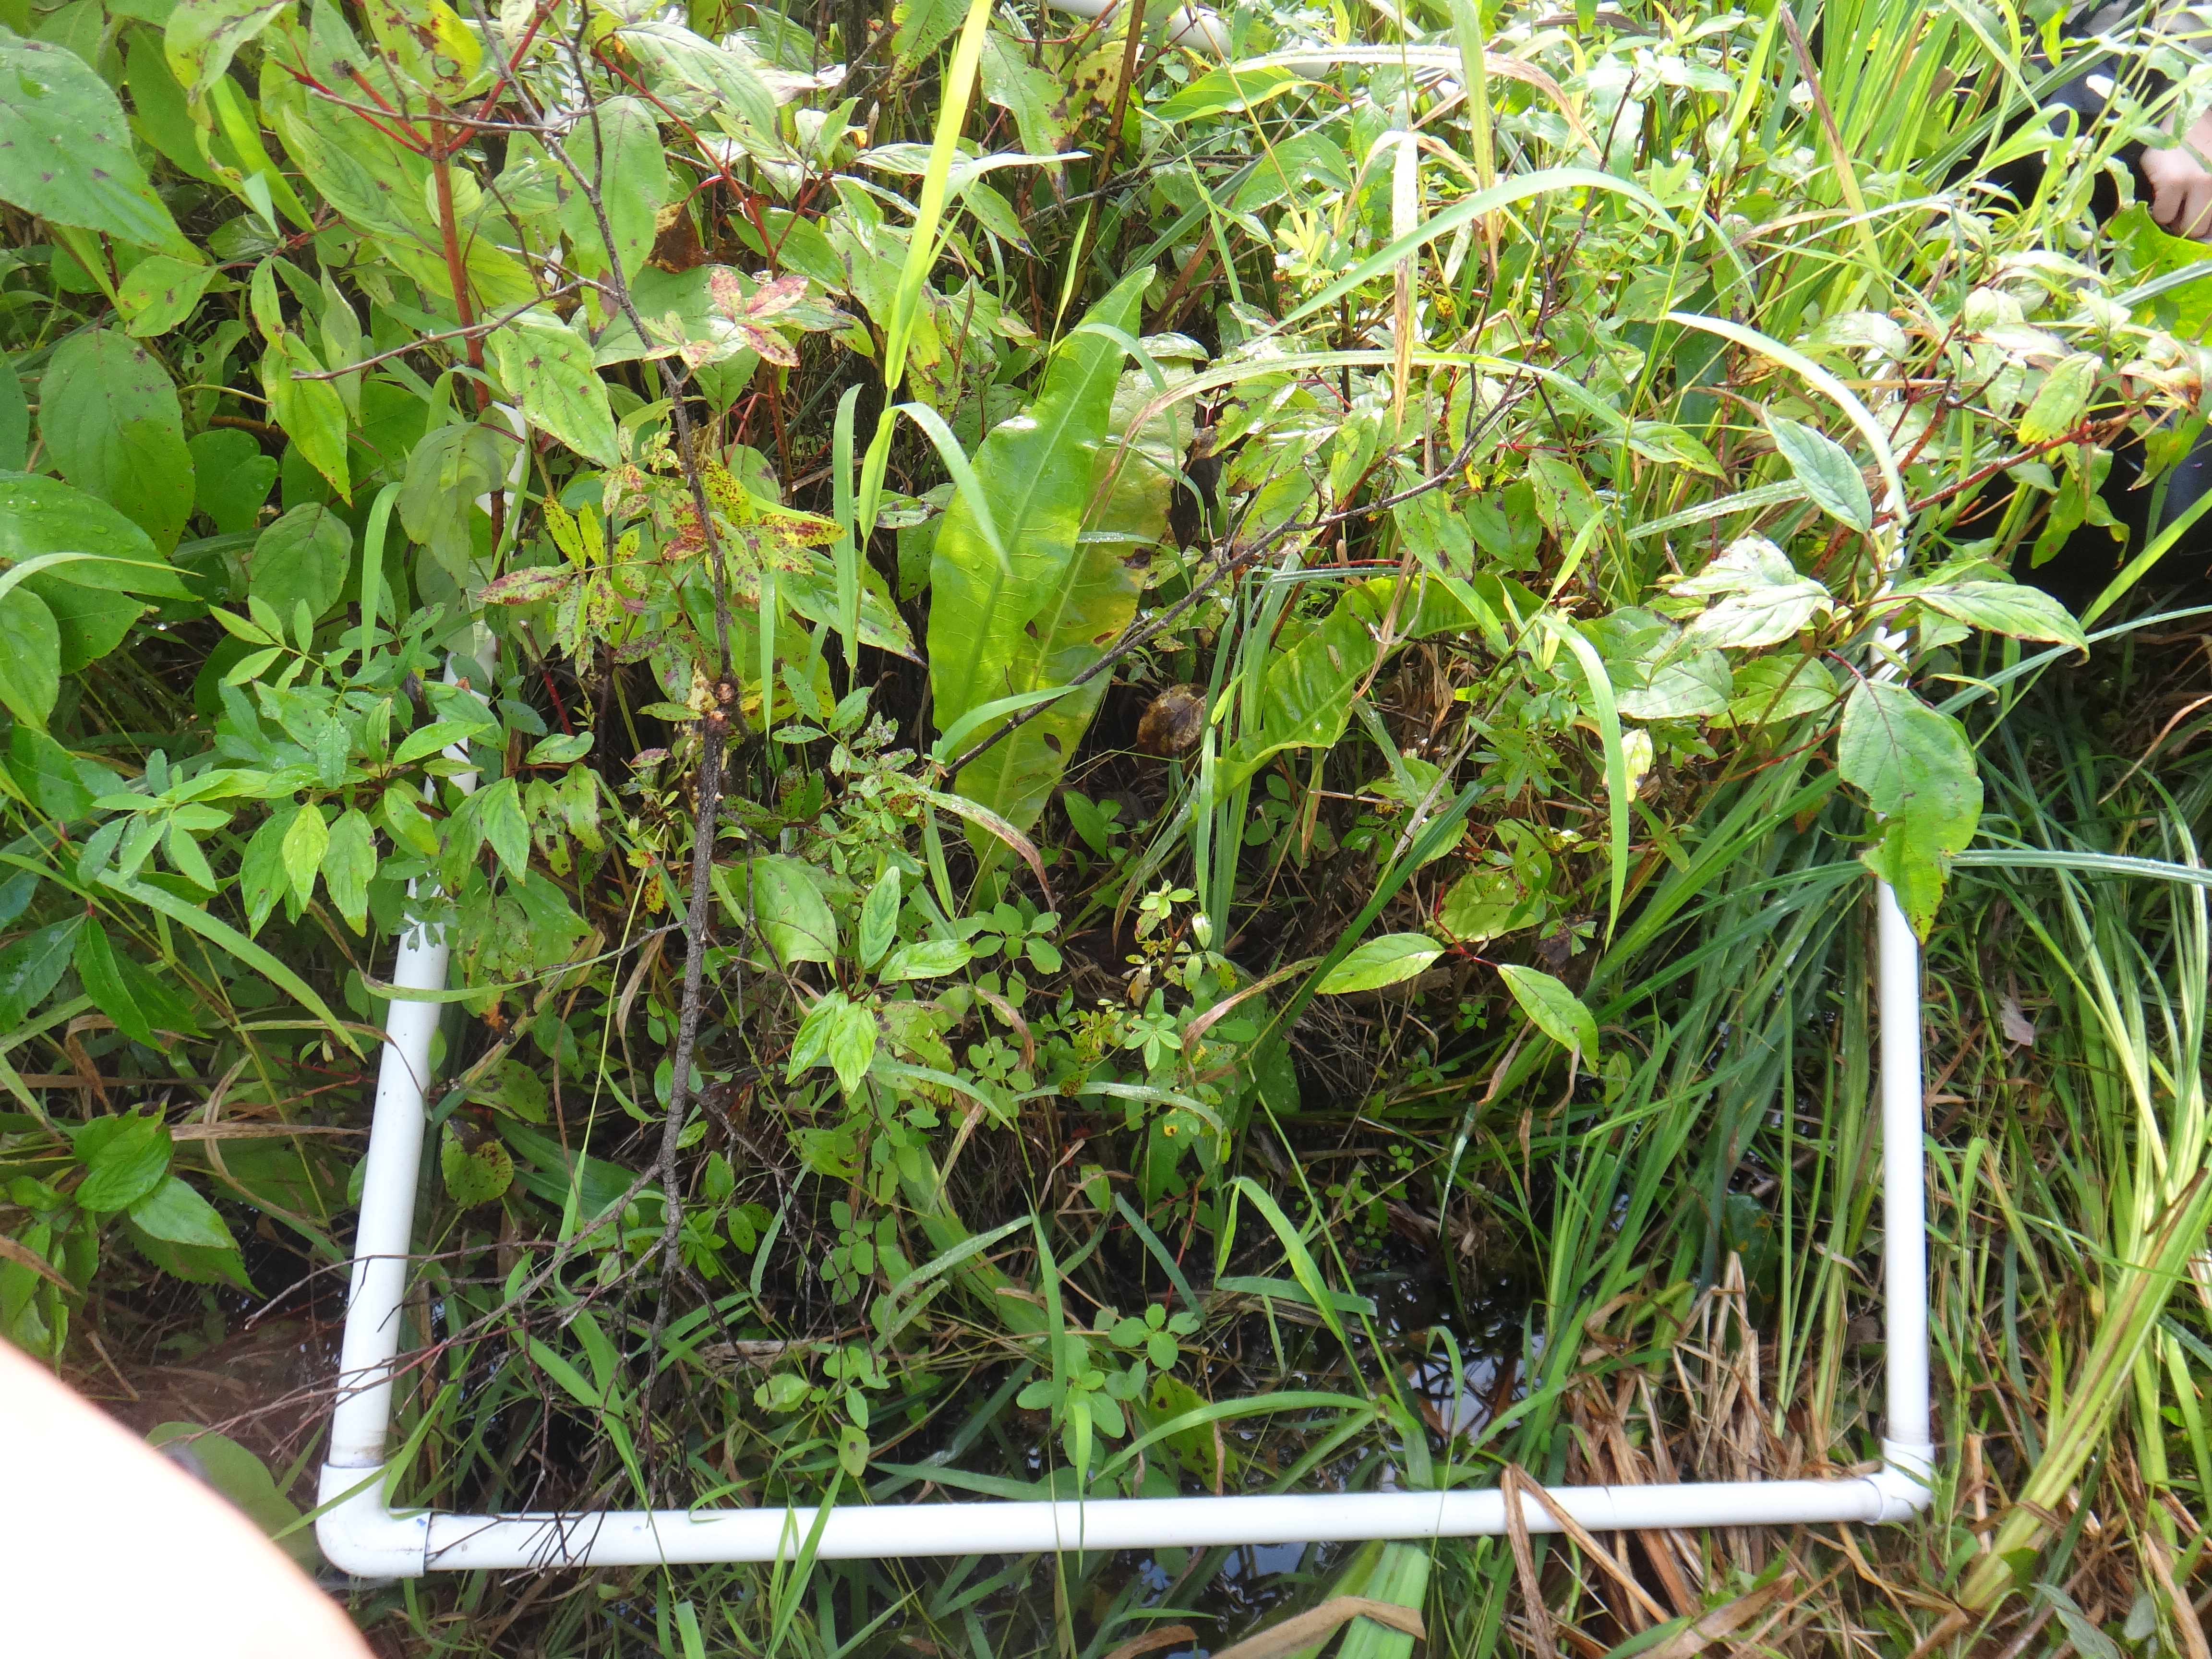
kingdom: Plantae
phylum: Tracheophyta
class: Magnoliopsida
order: Asterales
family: Asteraceae
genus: Bidens
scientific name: Bidens trichosperma
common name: Crowned beggarticks
